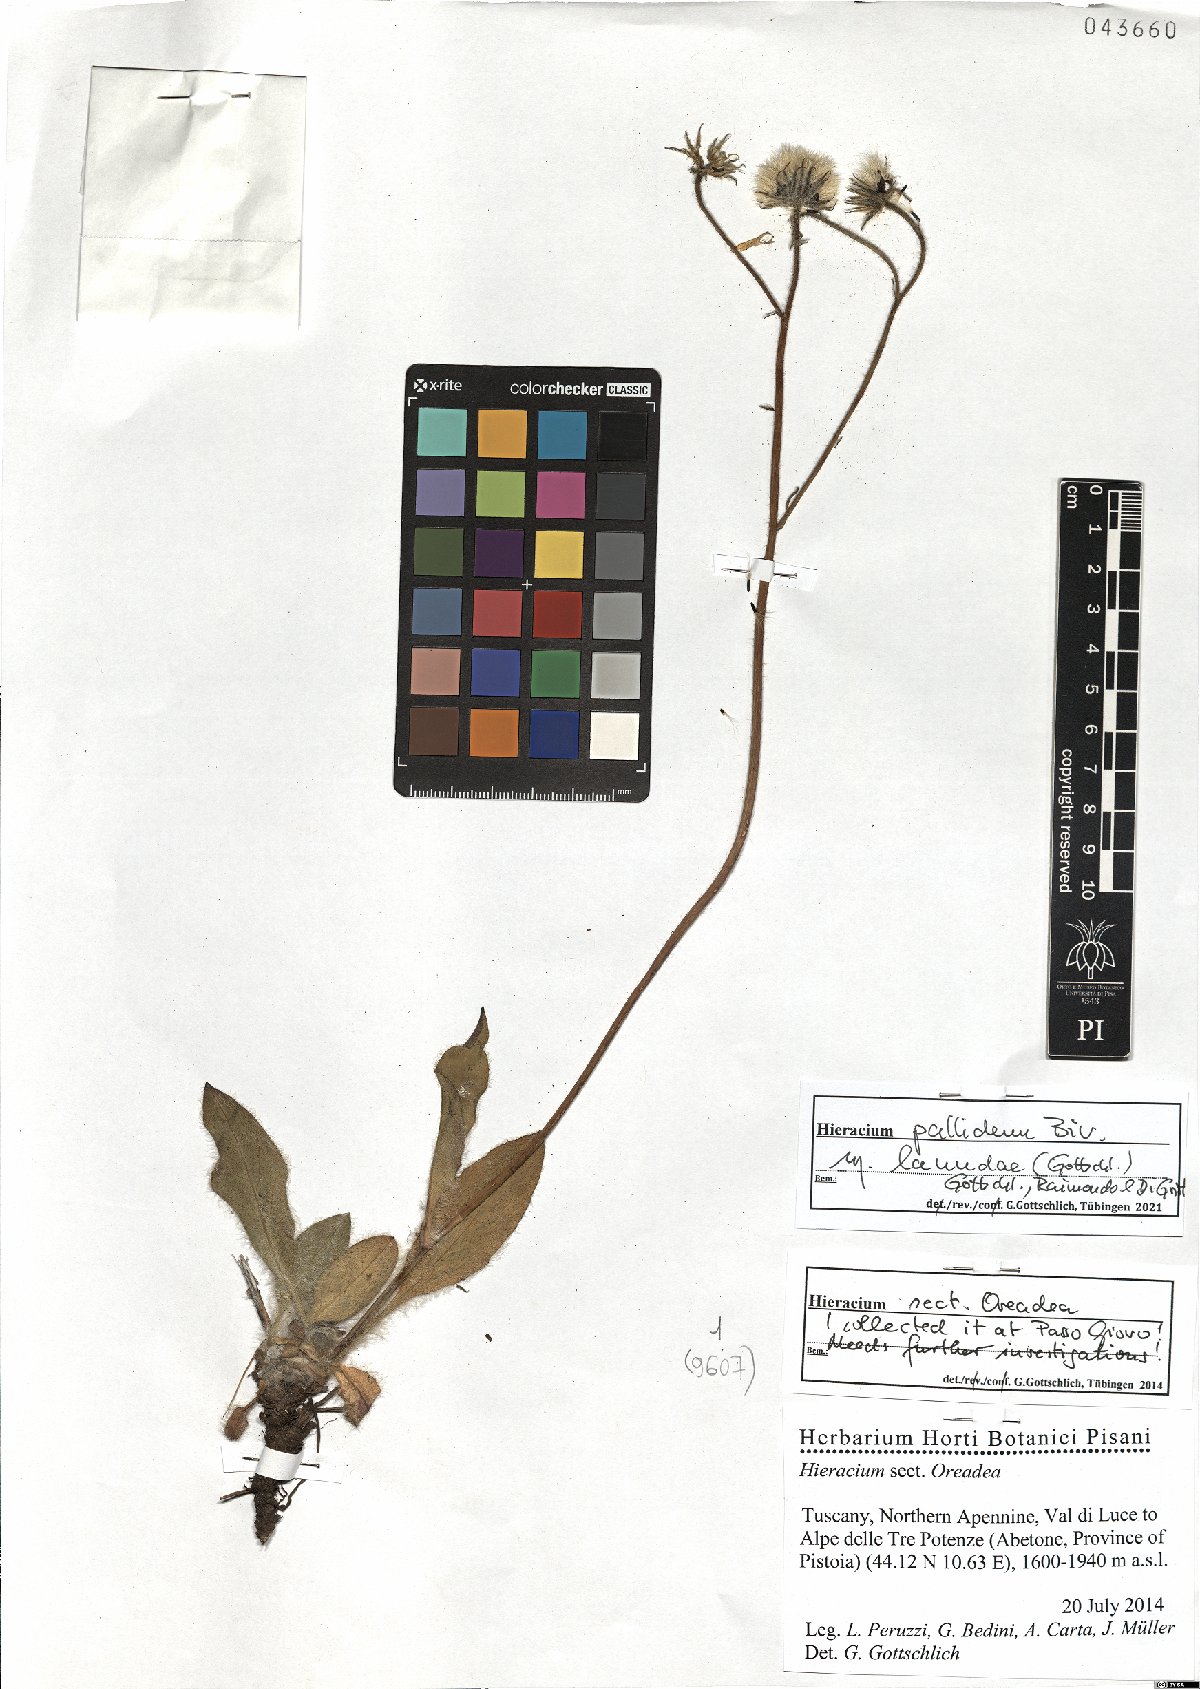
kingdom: Plantae
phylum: Tracheophyta
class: Magnoliopsida
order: Asterales
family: Asteraceae
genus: Hieracium
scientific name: Hieracium pallidum
